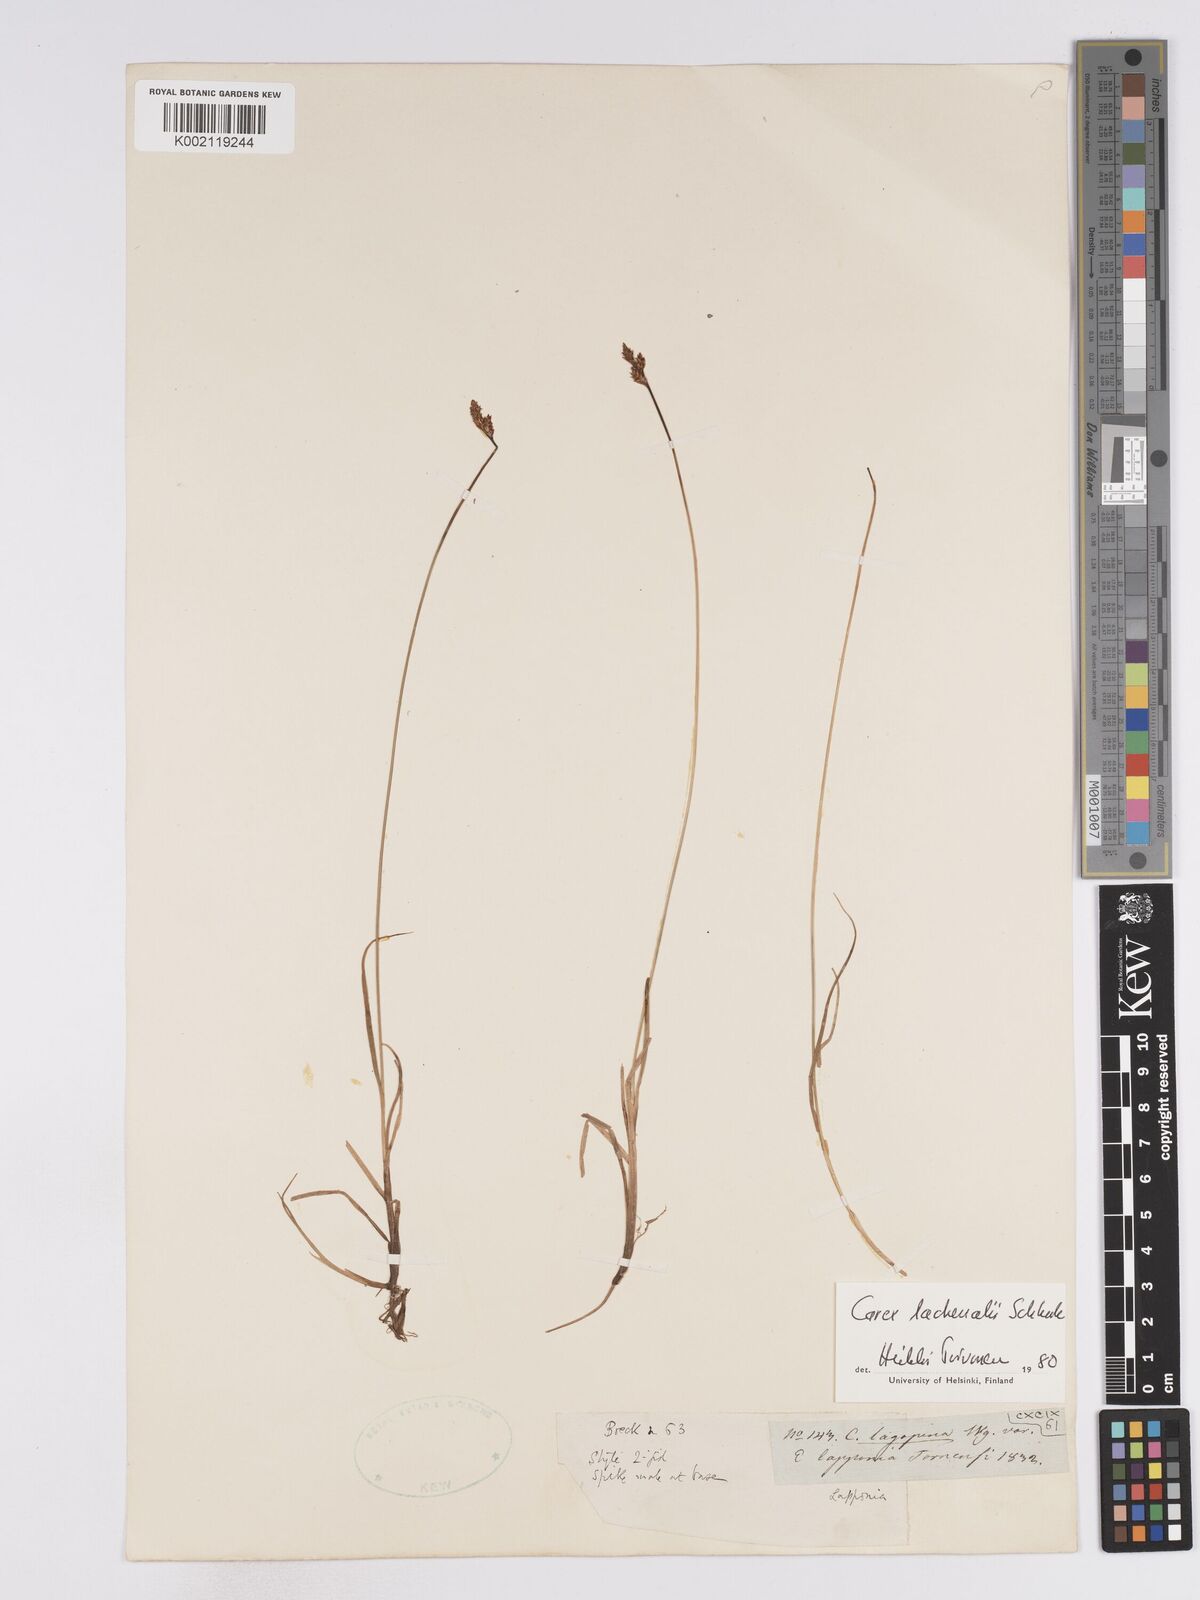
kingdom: Plantae
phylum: Tracheophyta
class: Liliopsida
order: Poales
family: Cyperaceae
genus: Carex
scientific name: Carex lachenalii
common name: Hare's-foot sedge
